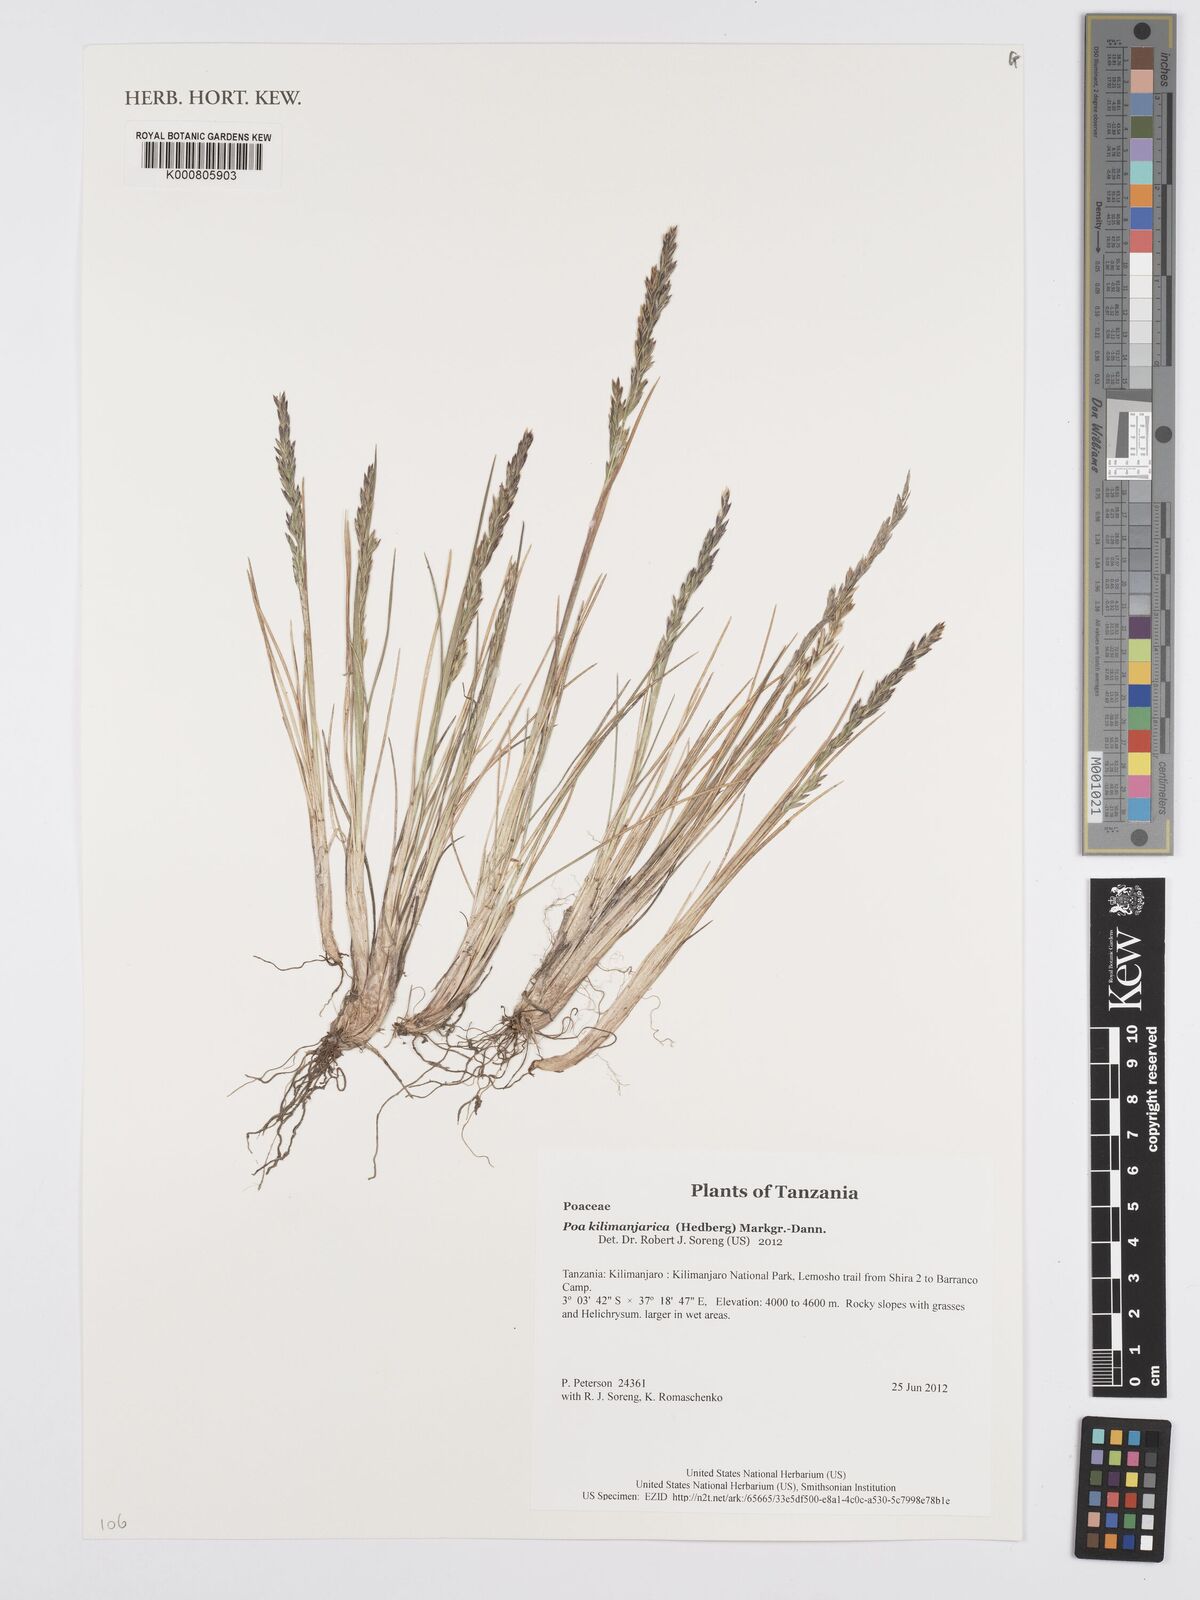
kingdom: Plantae
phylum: Tracheophyta
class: Liliopsida
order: Poales
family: Poaceae
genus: Poa
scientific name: Poa kilimanjarica
